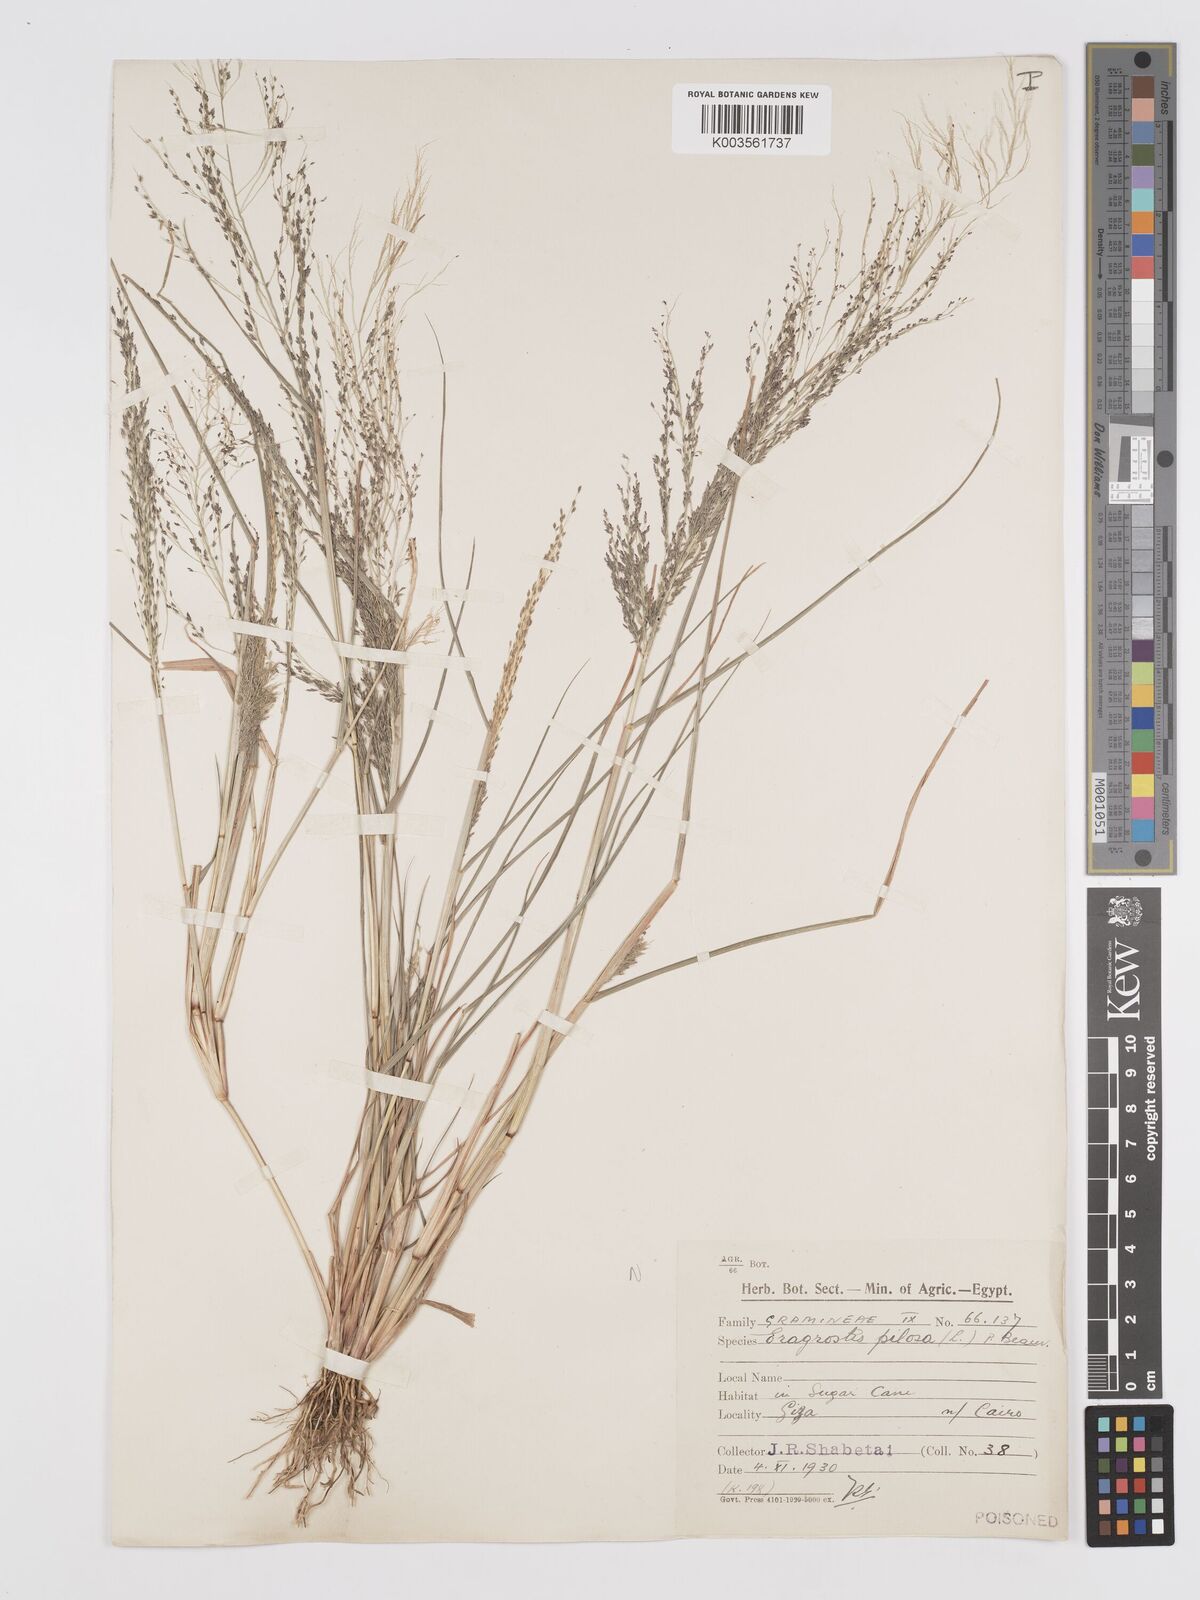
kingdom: Plantae
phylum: Tracheophyta
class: Liliopsida
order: Poales
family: Poaceae
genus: Eragrostis
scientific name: Eragrostis pilosa
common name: Indian lovegrass
